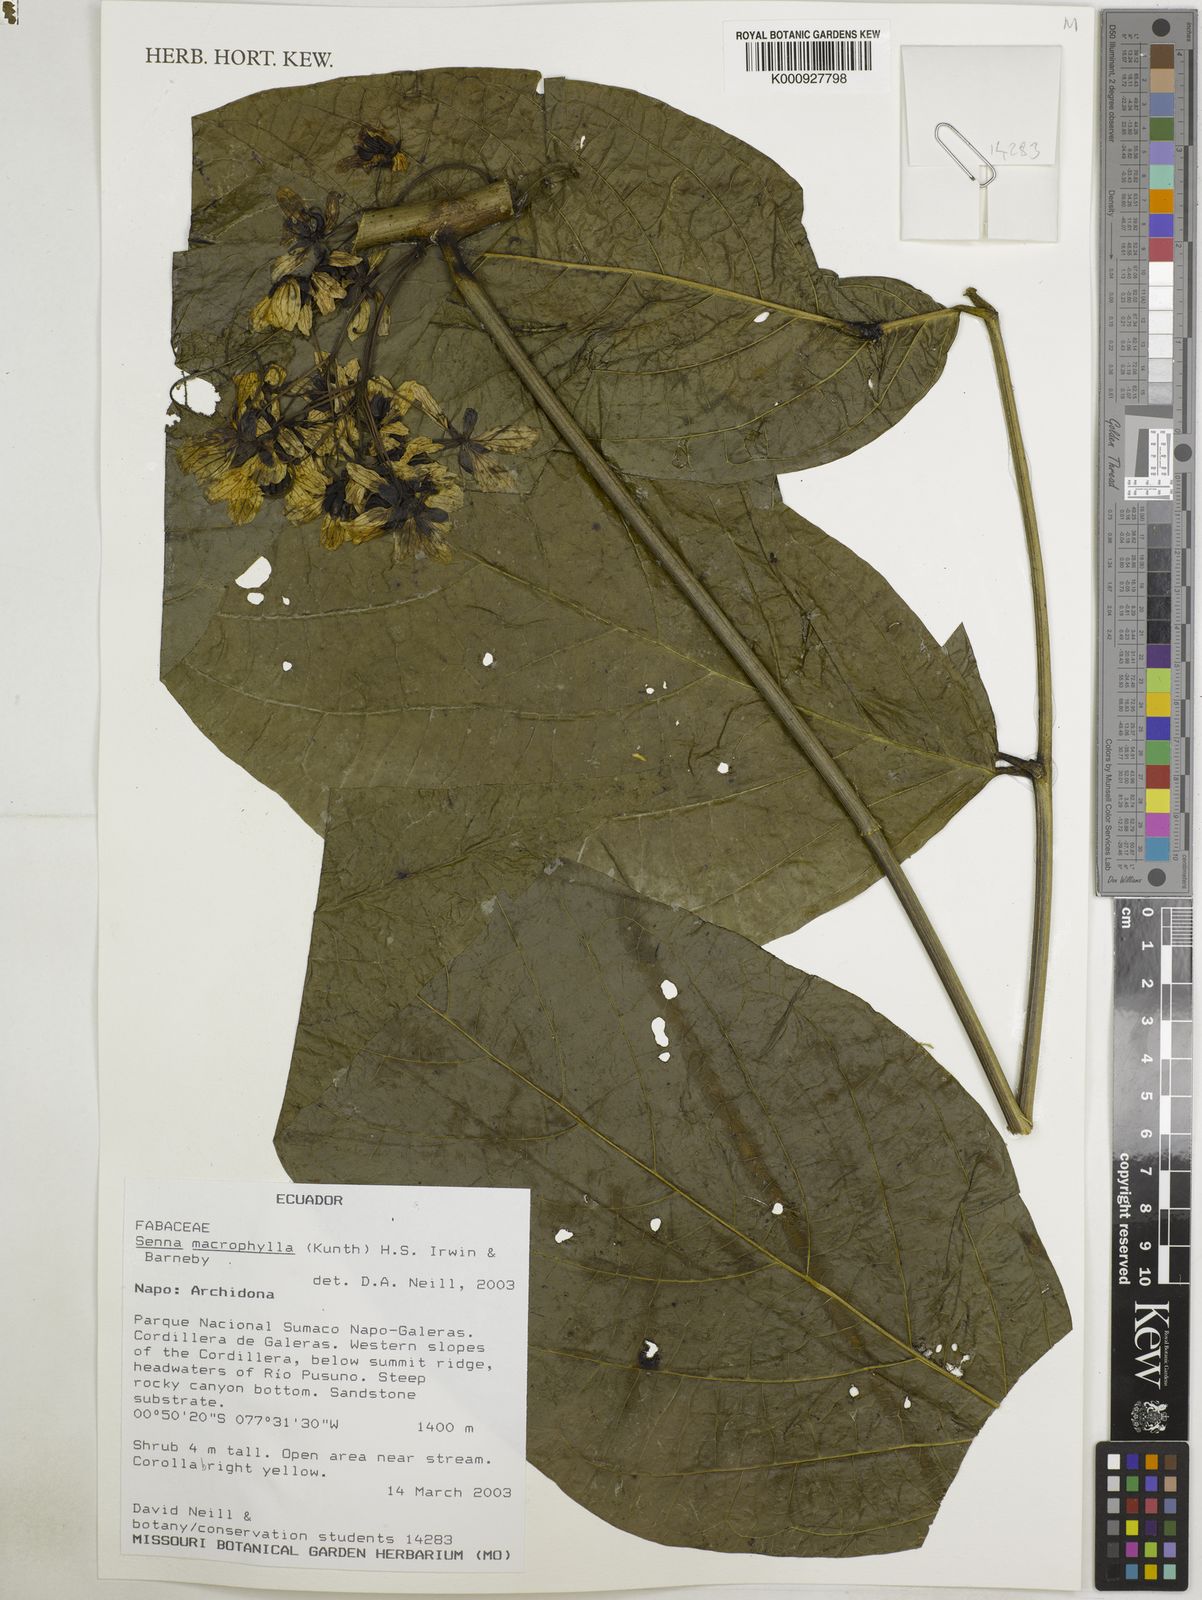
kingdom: Plantae
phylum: Tracheophyta
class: Magnoliopsida
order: Fabales
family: Fabaceae
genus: Senna
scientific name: Senna macrophylla
